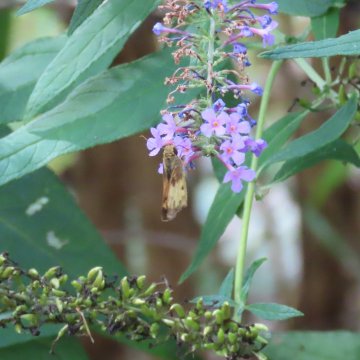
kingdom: Animalia
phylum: Arthropoda
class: Insecta
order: Lepidoptera
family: Hesperiidae
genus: Lon
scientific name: Lon zabulon
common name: Zabulon Skipper
